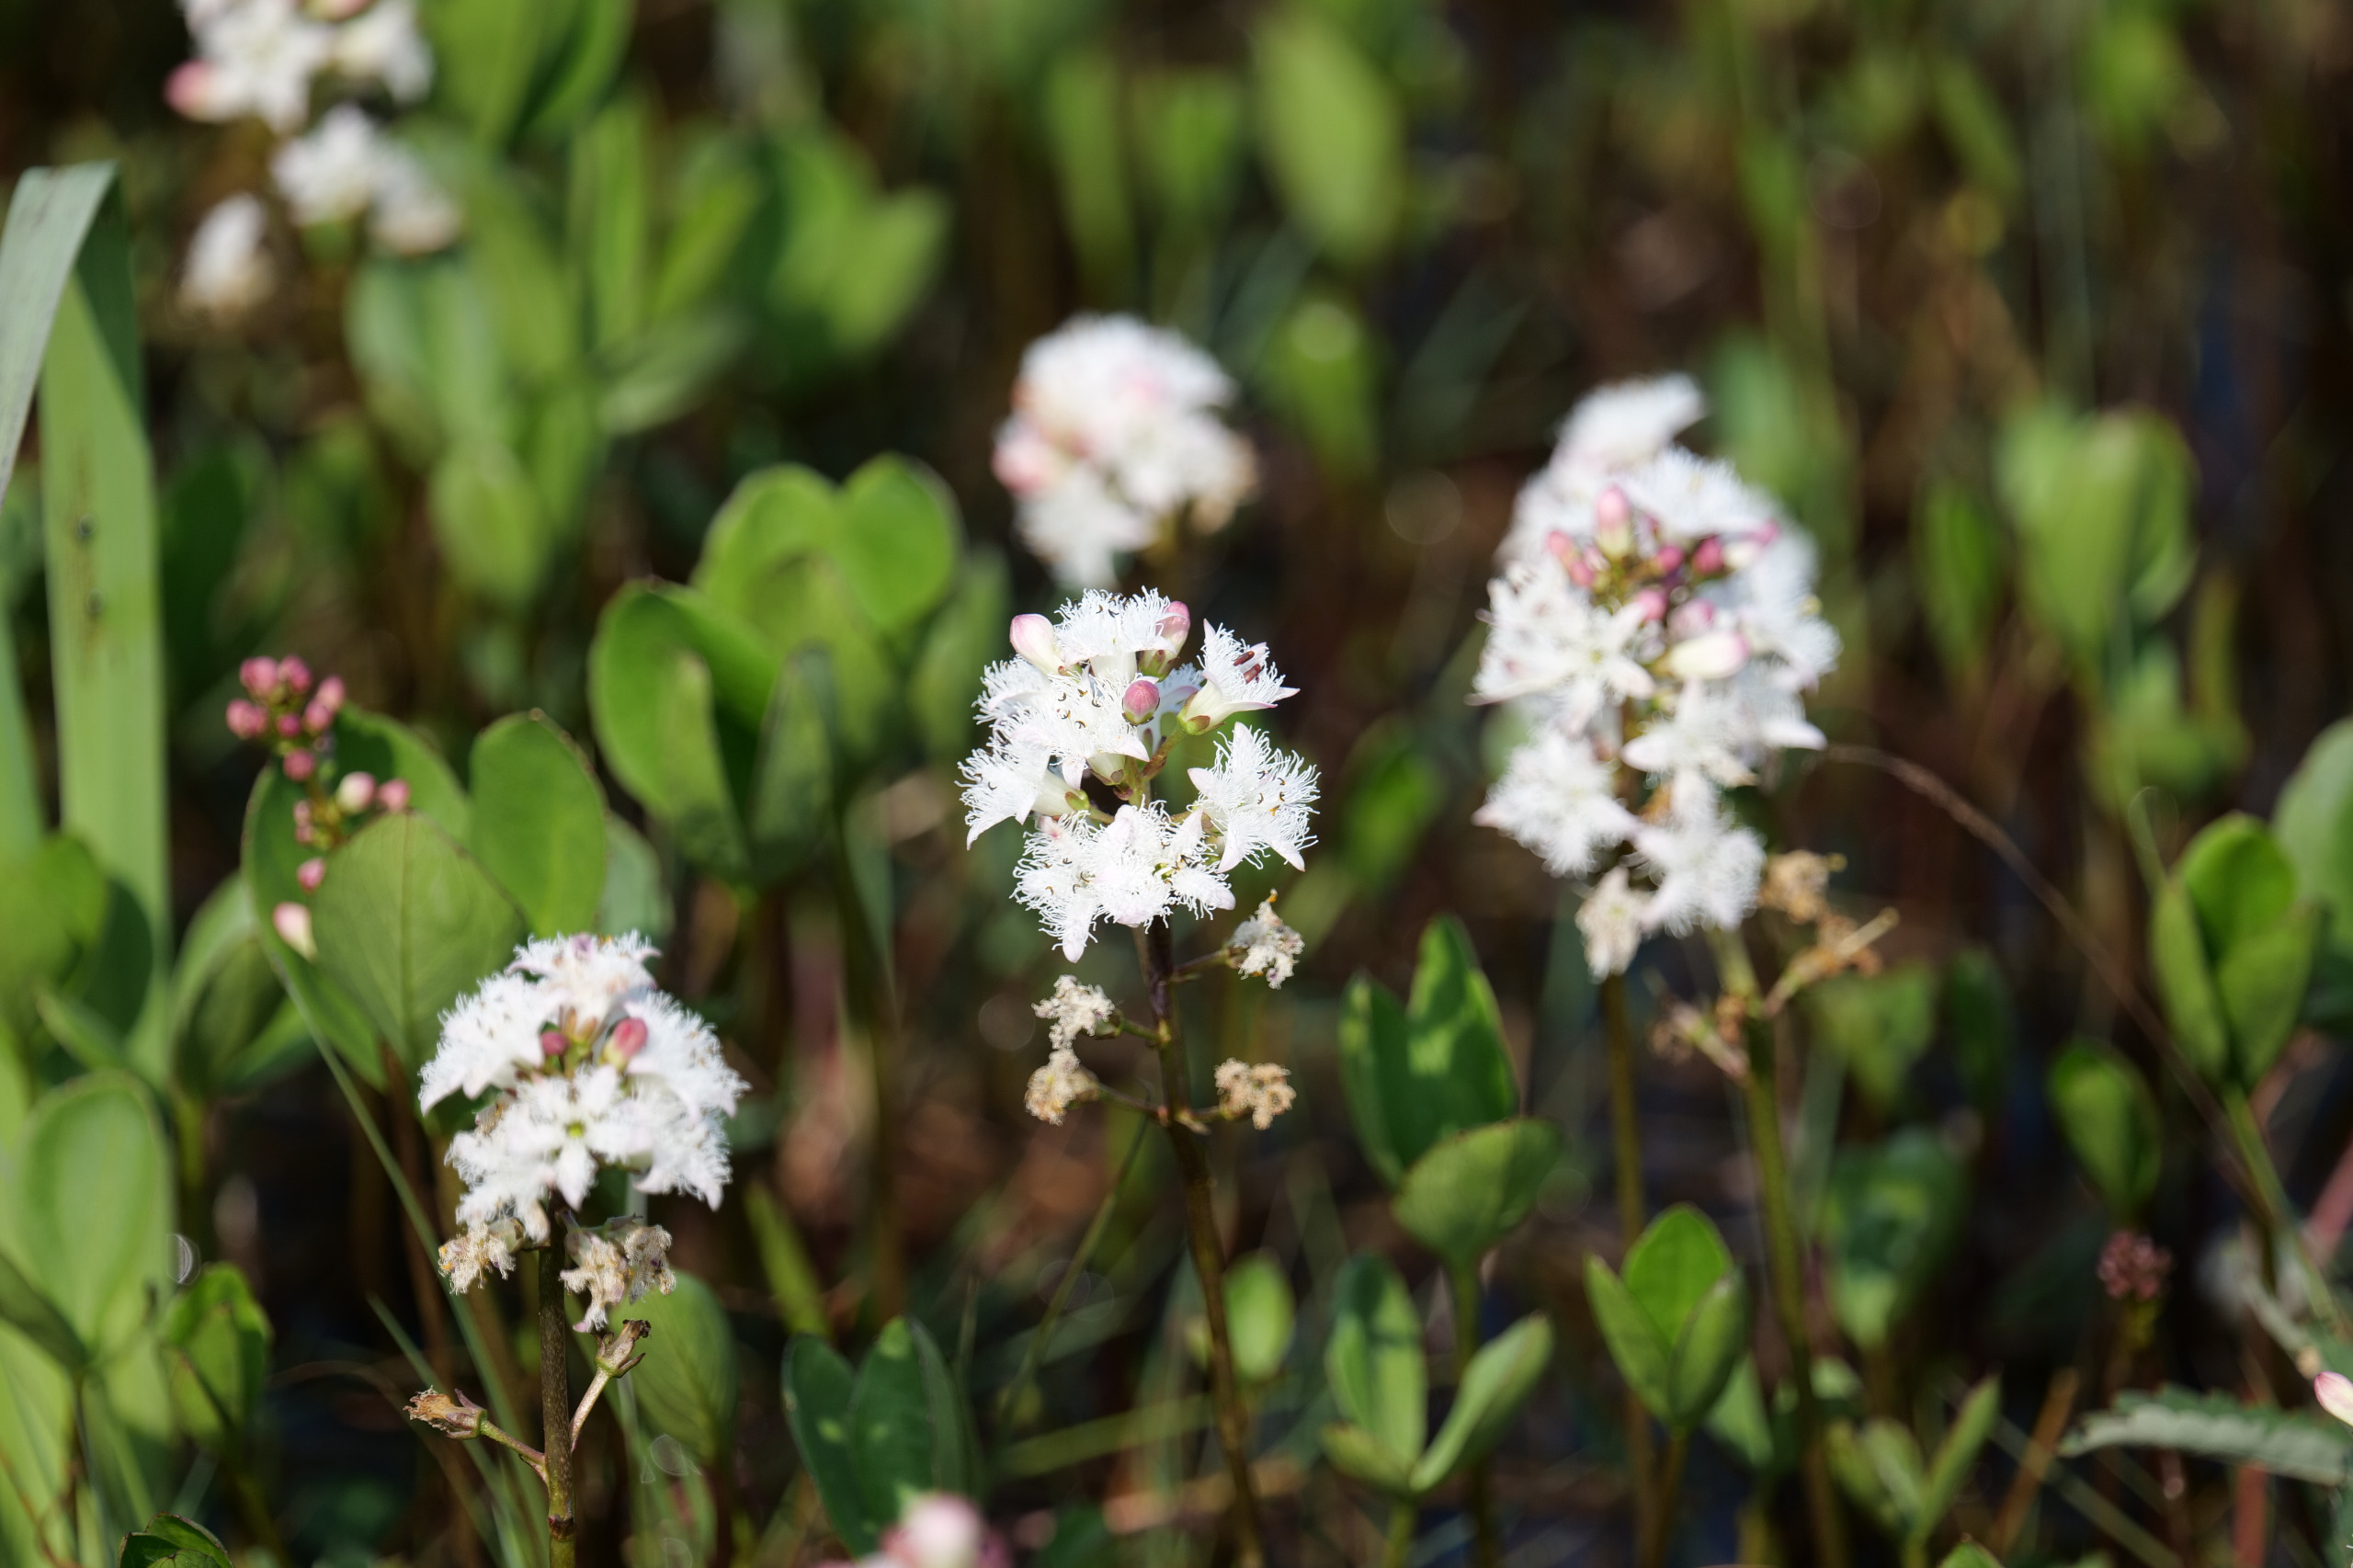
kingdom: Plantae
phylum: Tracheophyta
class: Magnoliopsida
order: Asterales
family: Menyanthaceae
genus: Menyanthes
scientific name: Menyanthes trifoliata
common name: Bukkeblad
